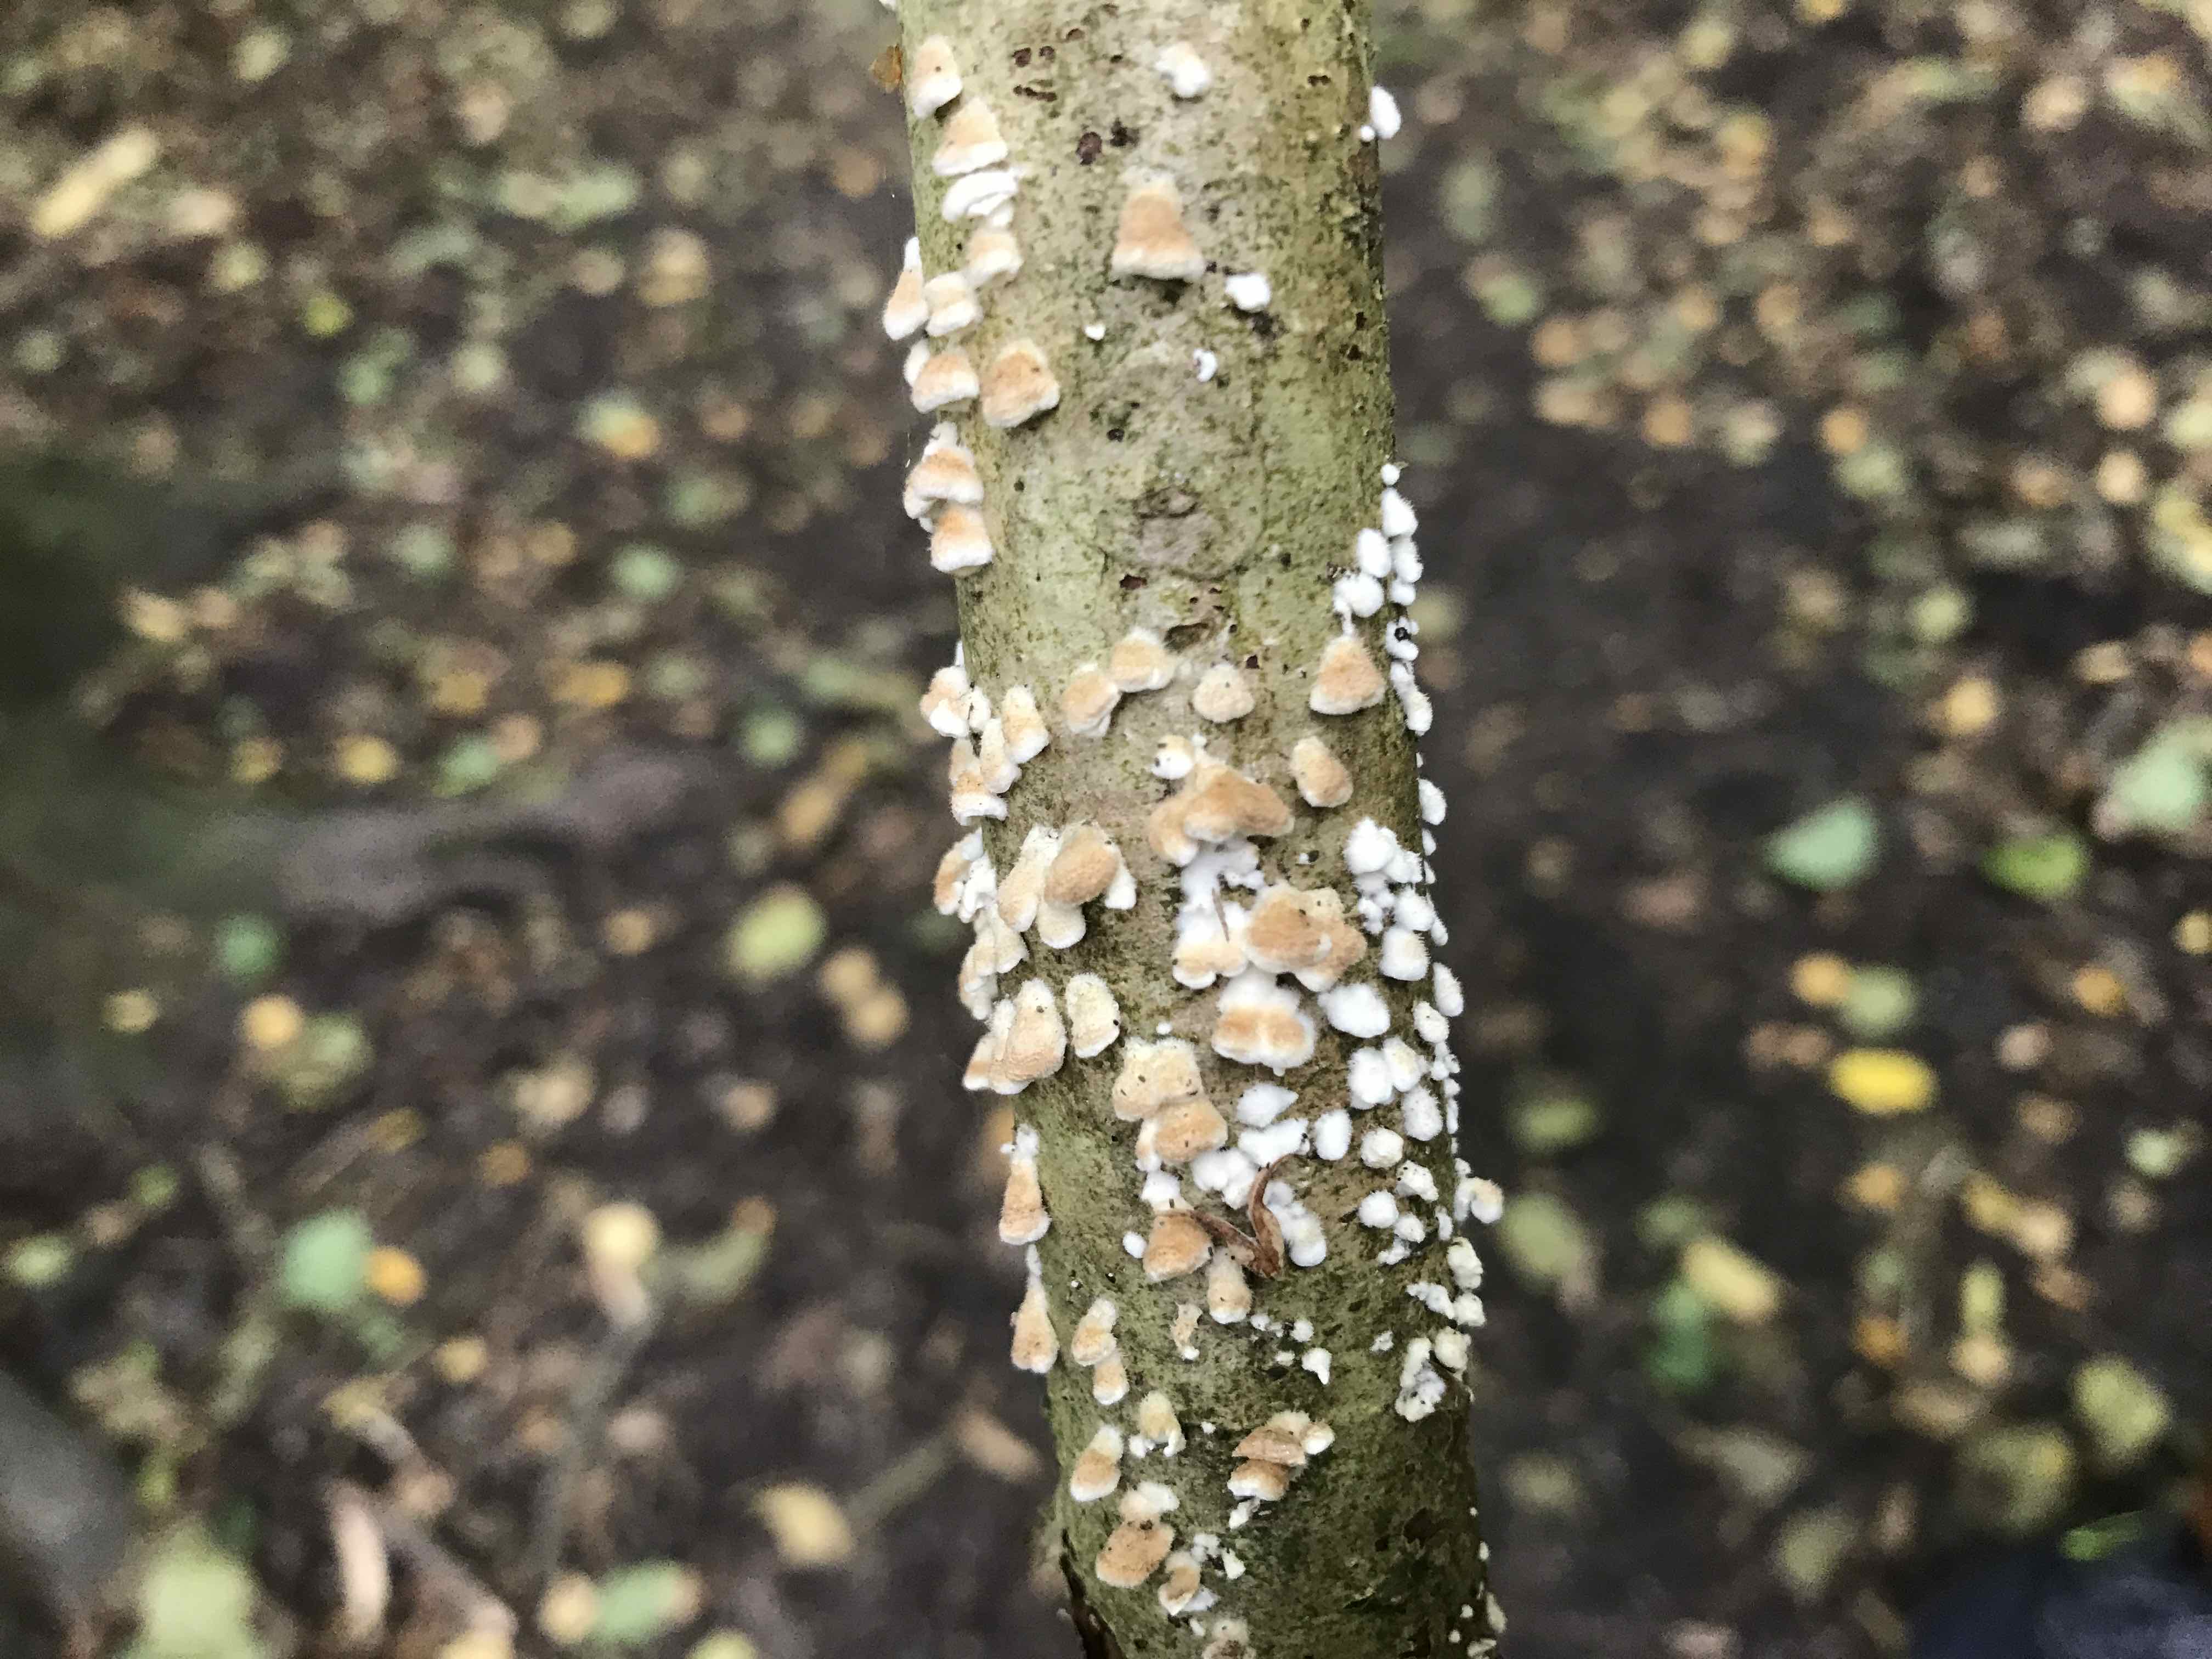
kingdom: Fungi
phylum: Basidiomycota
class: Agaricomycetes
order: Amylocorticiales
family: Amylocorticiaceae
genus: Plicaturopsis
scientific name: Plicaturopsis crispa
